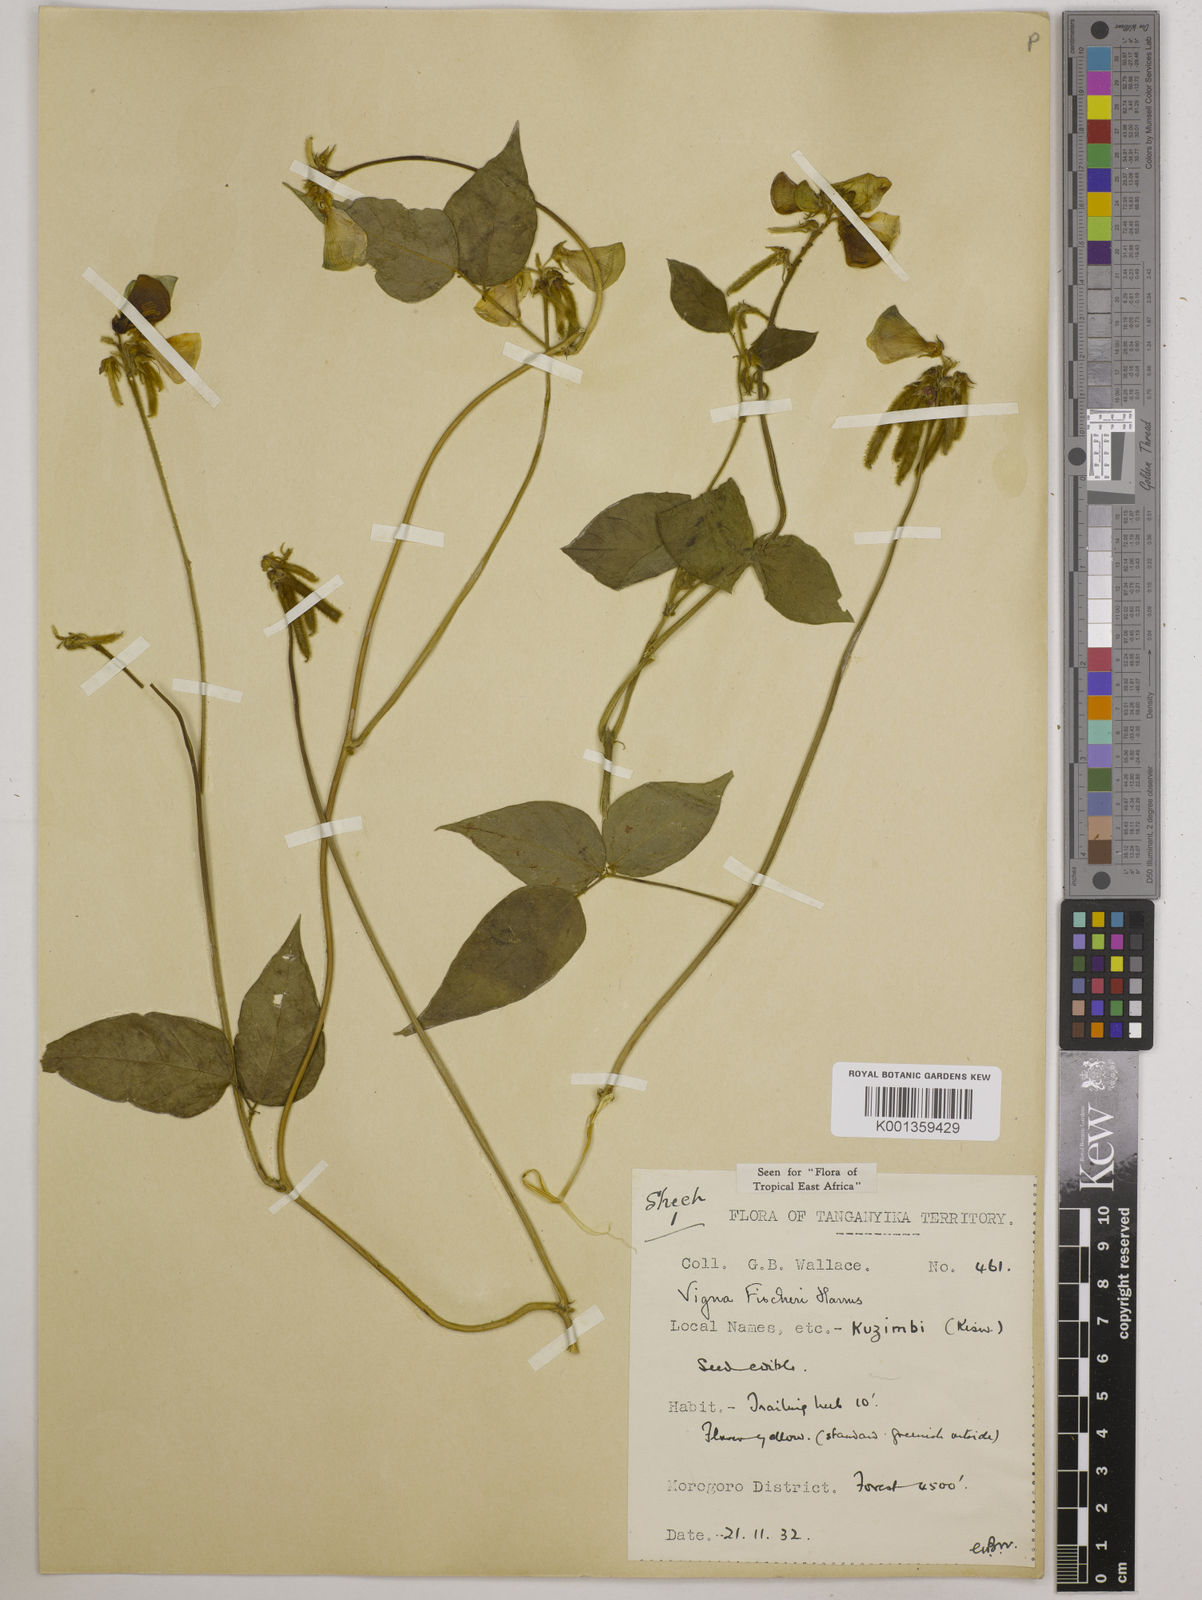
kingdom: Plantae
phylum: Tracheophyta
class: Magnoliopsida
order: Fabales
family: Fabaceae
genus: Vigna
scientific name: Vigna fischeri
